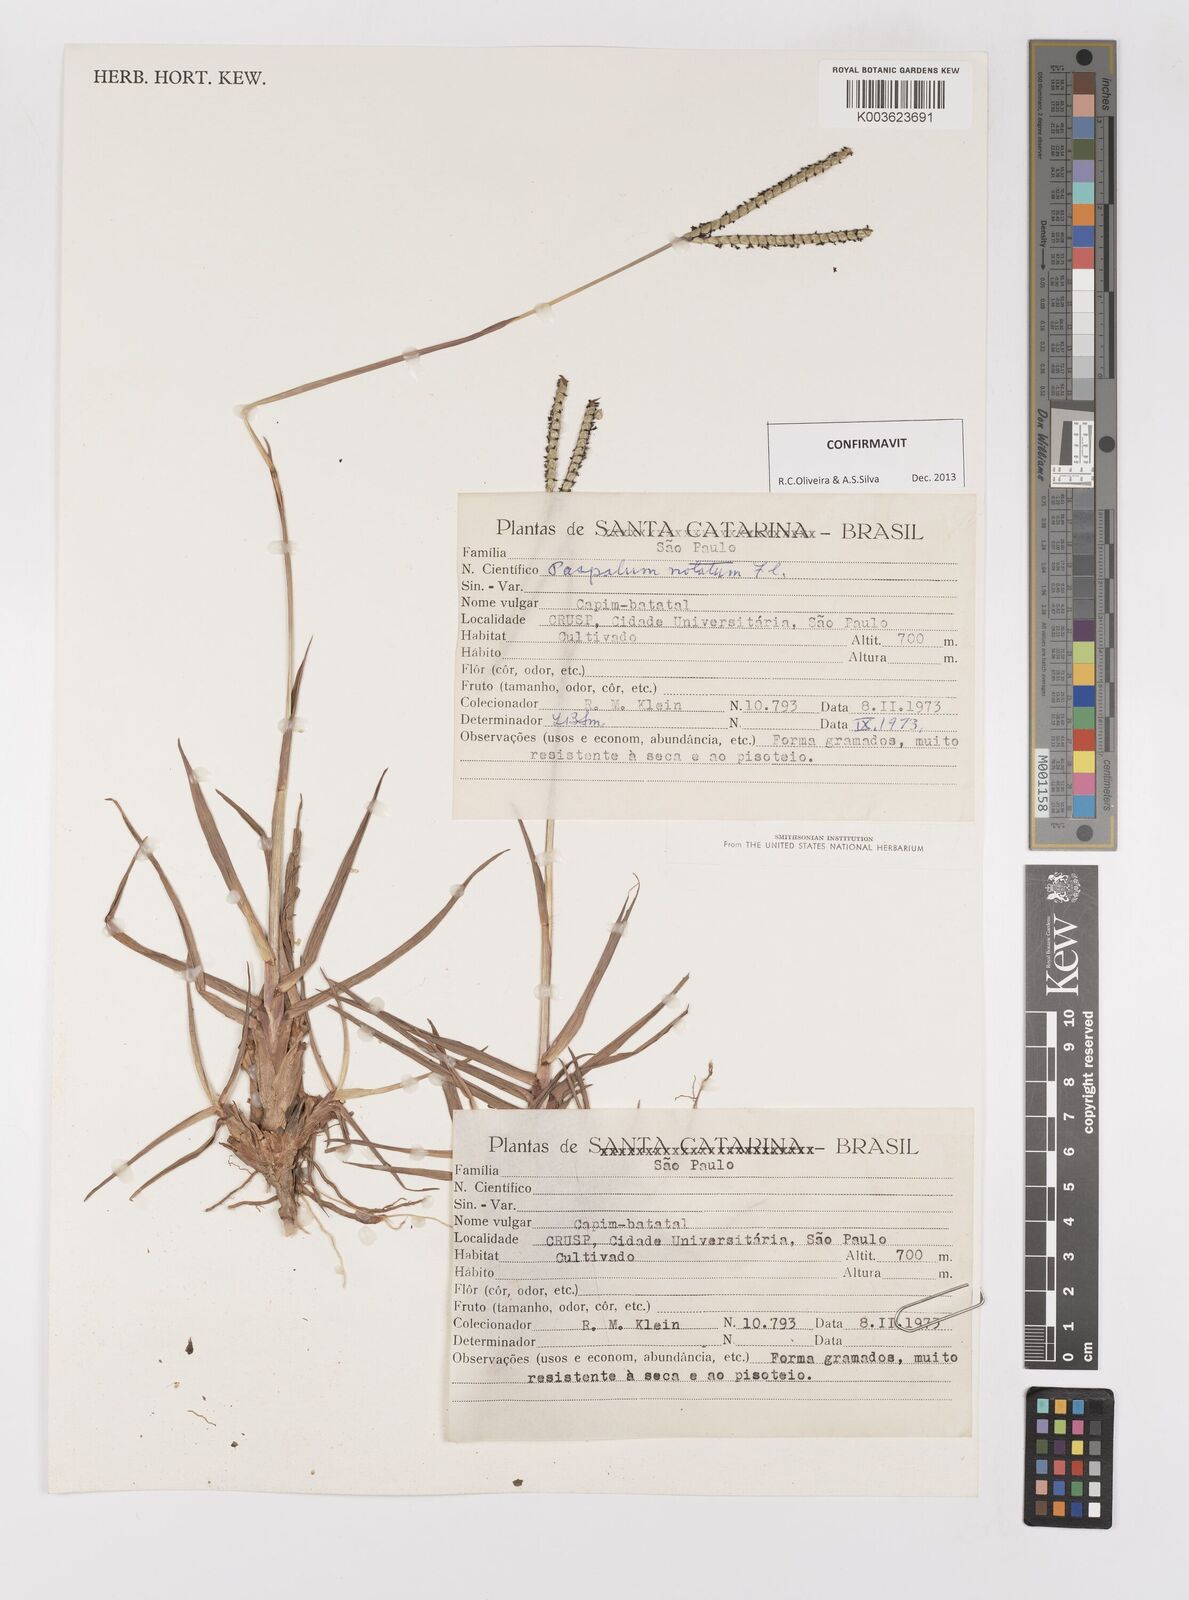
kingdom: Plantae
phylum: Tracheophyta
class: Liliopsida
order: Poales
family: Poaceae
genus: Paspalum
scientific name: Paspalum notatum
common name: Bahiagrass
